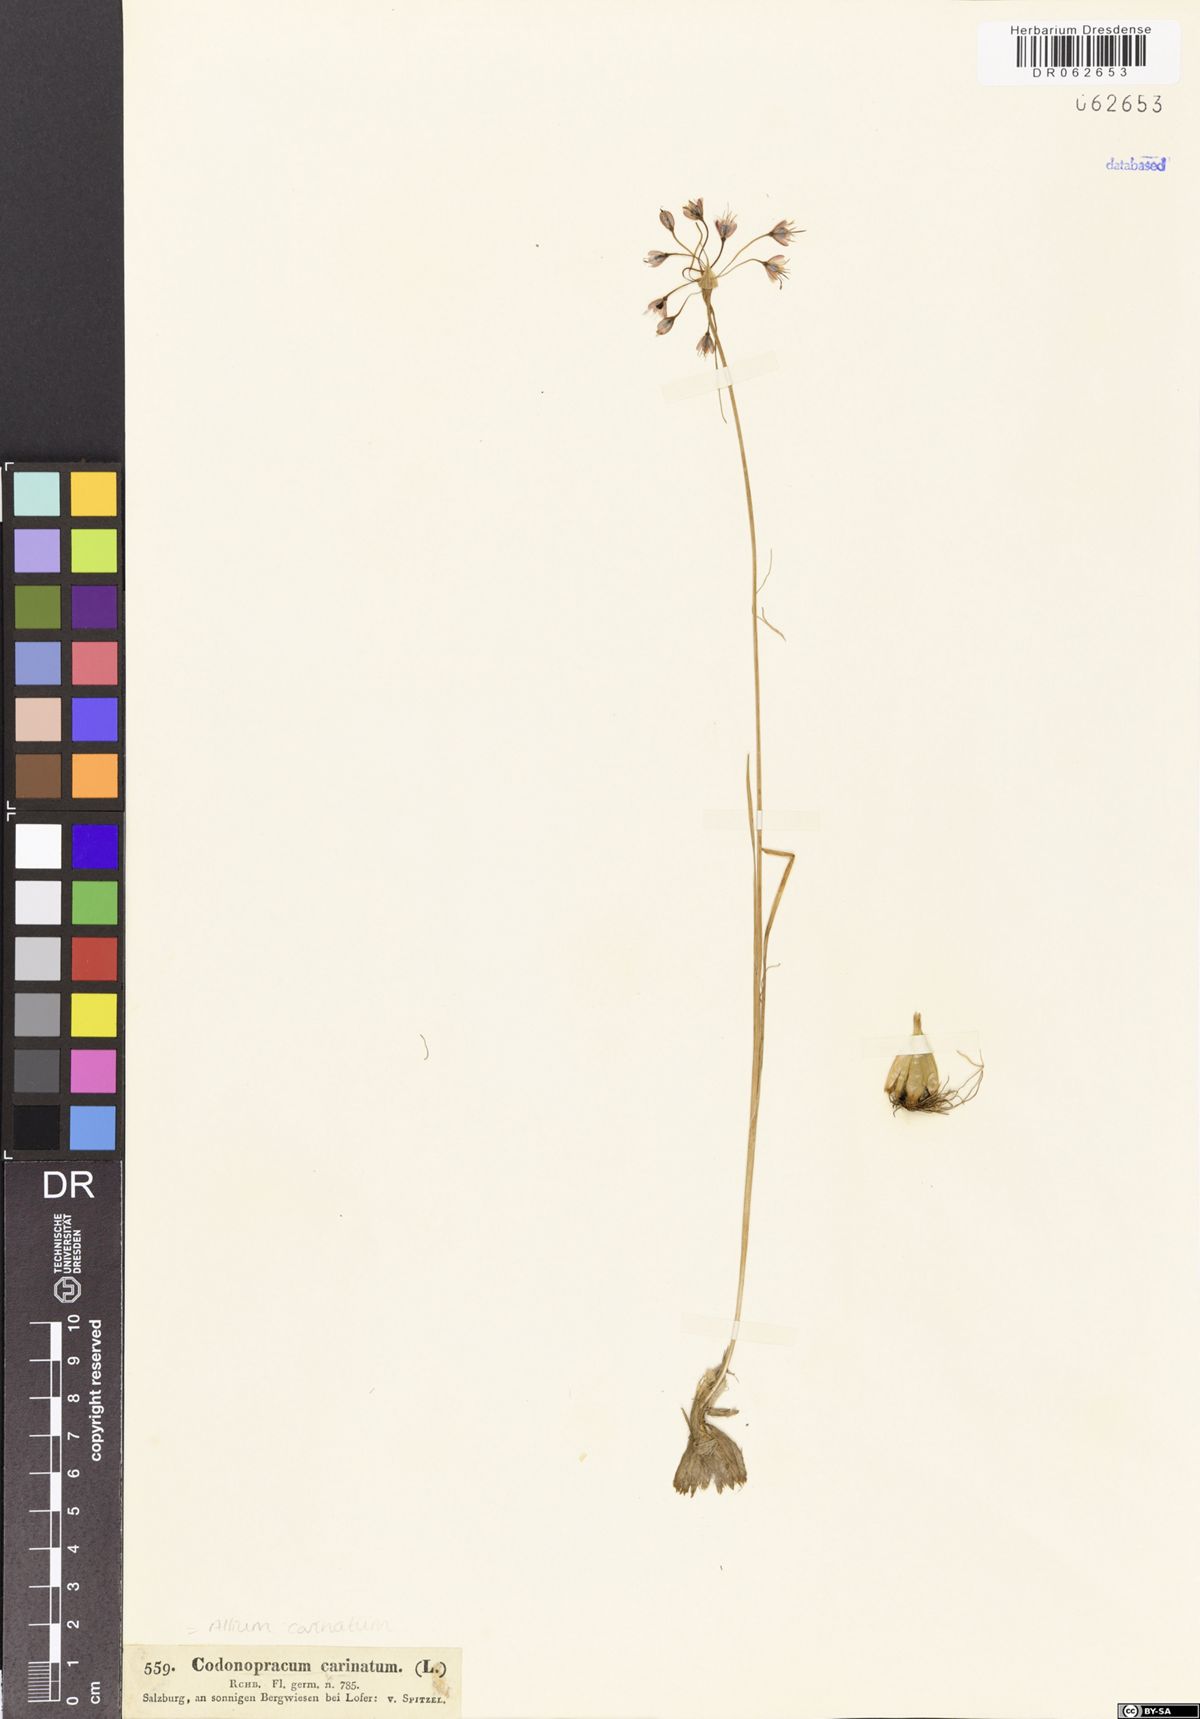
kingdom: Plantae
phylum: Tracheophyta
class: Liliopsida
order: Asparagales
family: Amaryllidaceae
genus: Allium
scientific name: Allium carinatum
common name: Keeled garlic
